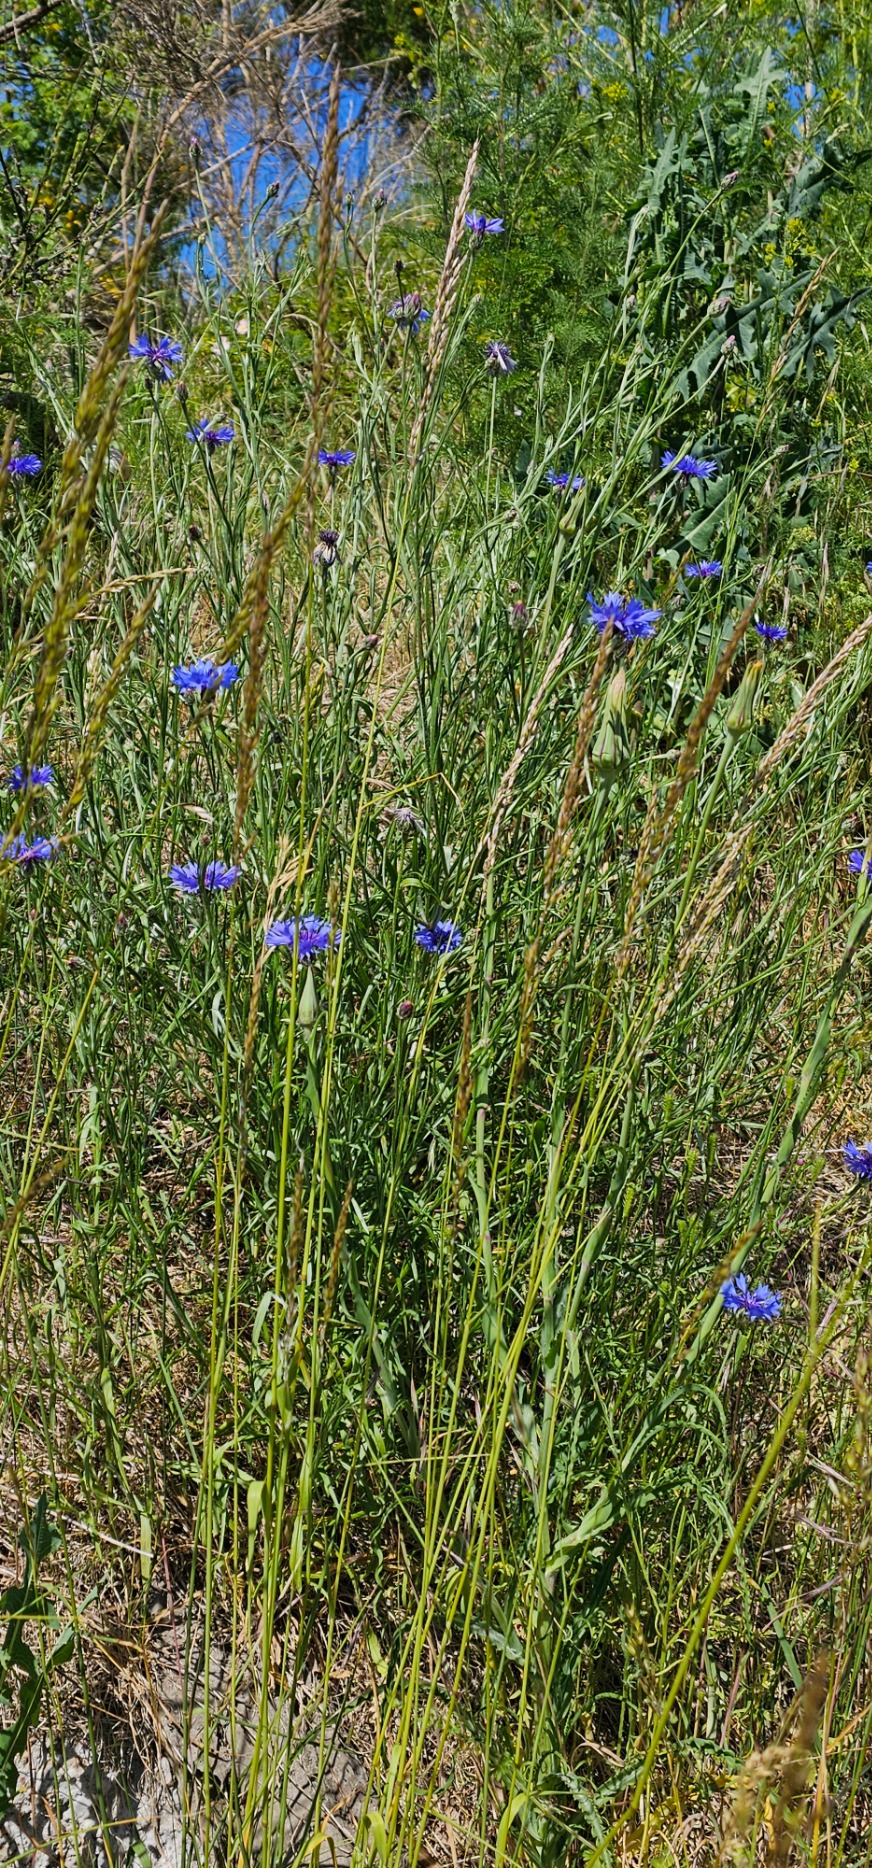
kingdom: Plantae
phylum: Tracheophyta
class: Magnoliopsida
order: Asterales
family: Asteraceae
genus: Centaurea
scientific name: Centaurea cyanus
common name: Kornblomst
